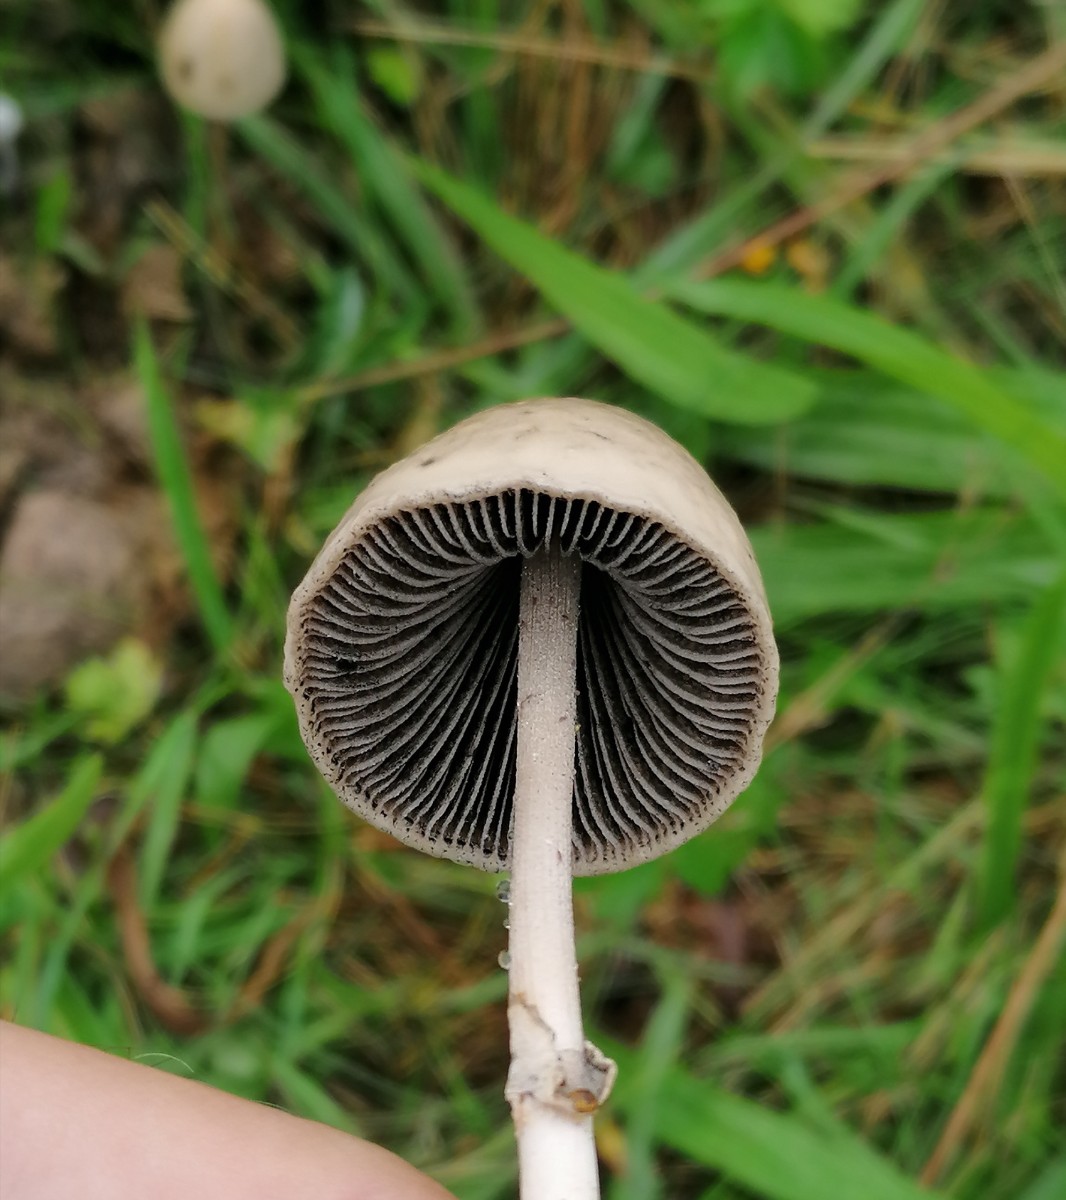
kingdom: Fungi
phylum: Basidiomycota
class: Agaricomycetes
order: Agaricales
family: Bolbitiaceae
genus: Panaeolus
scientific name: Panaeolus semiovatus
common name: ring-glanshat
